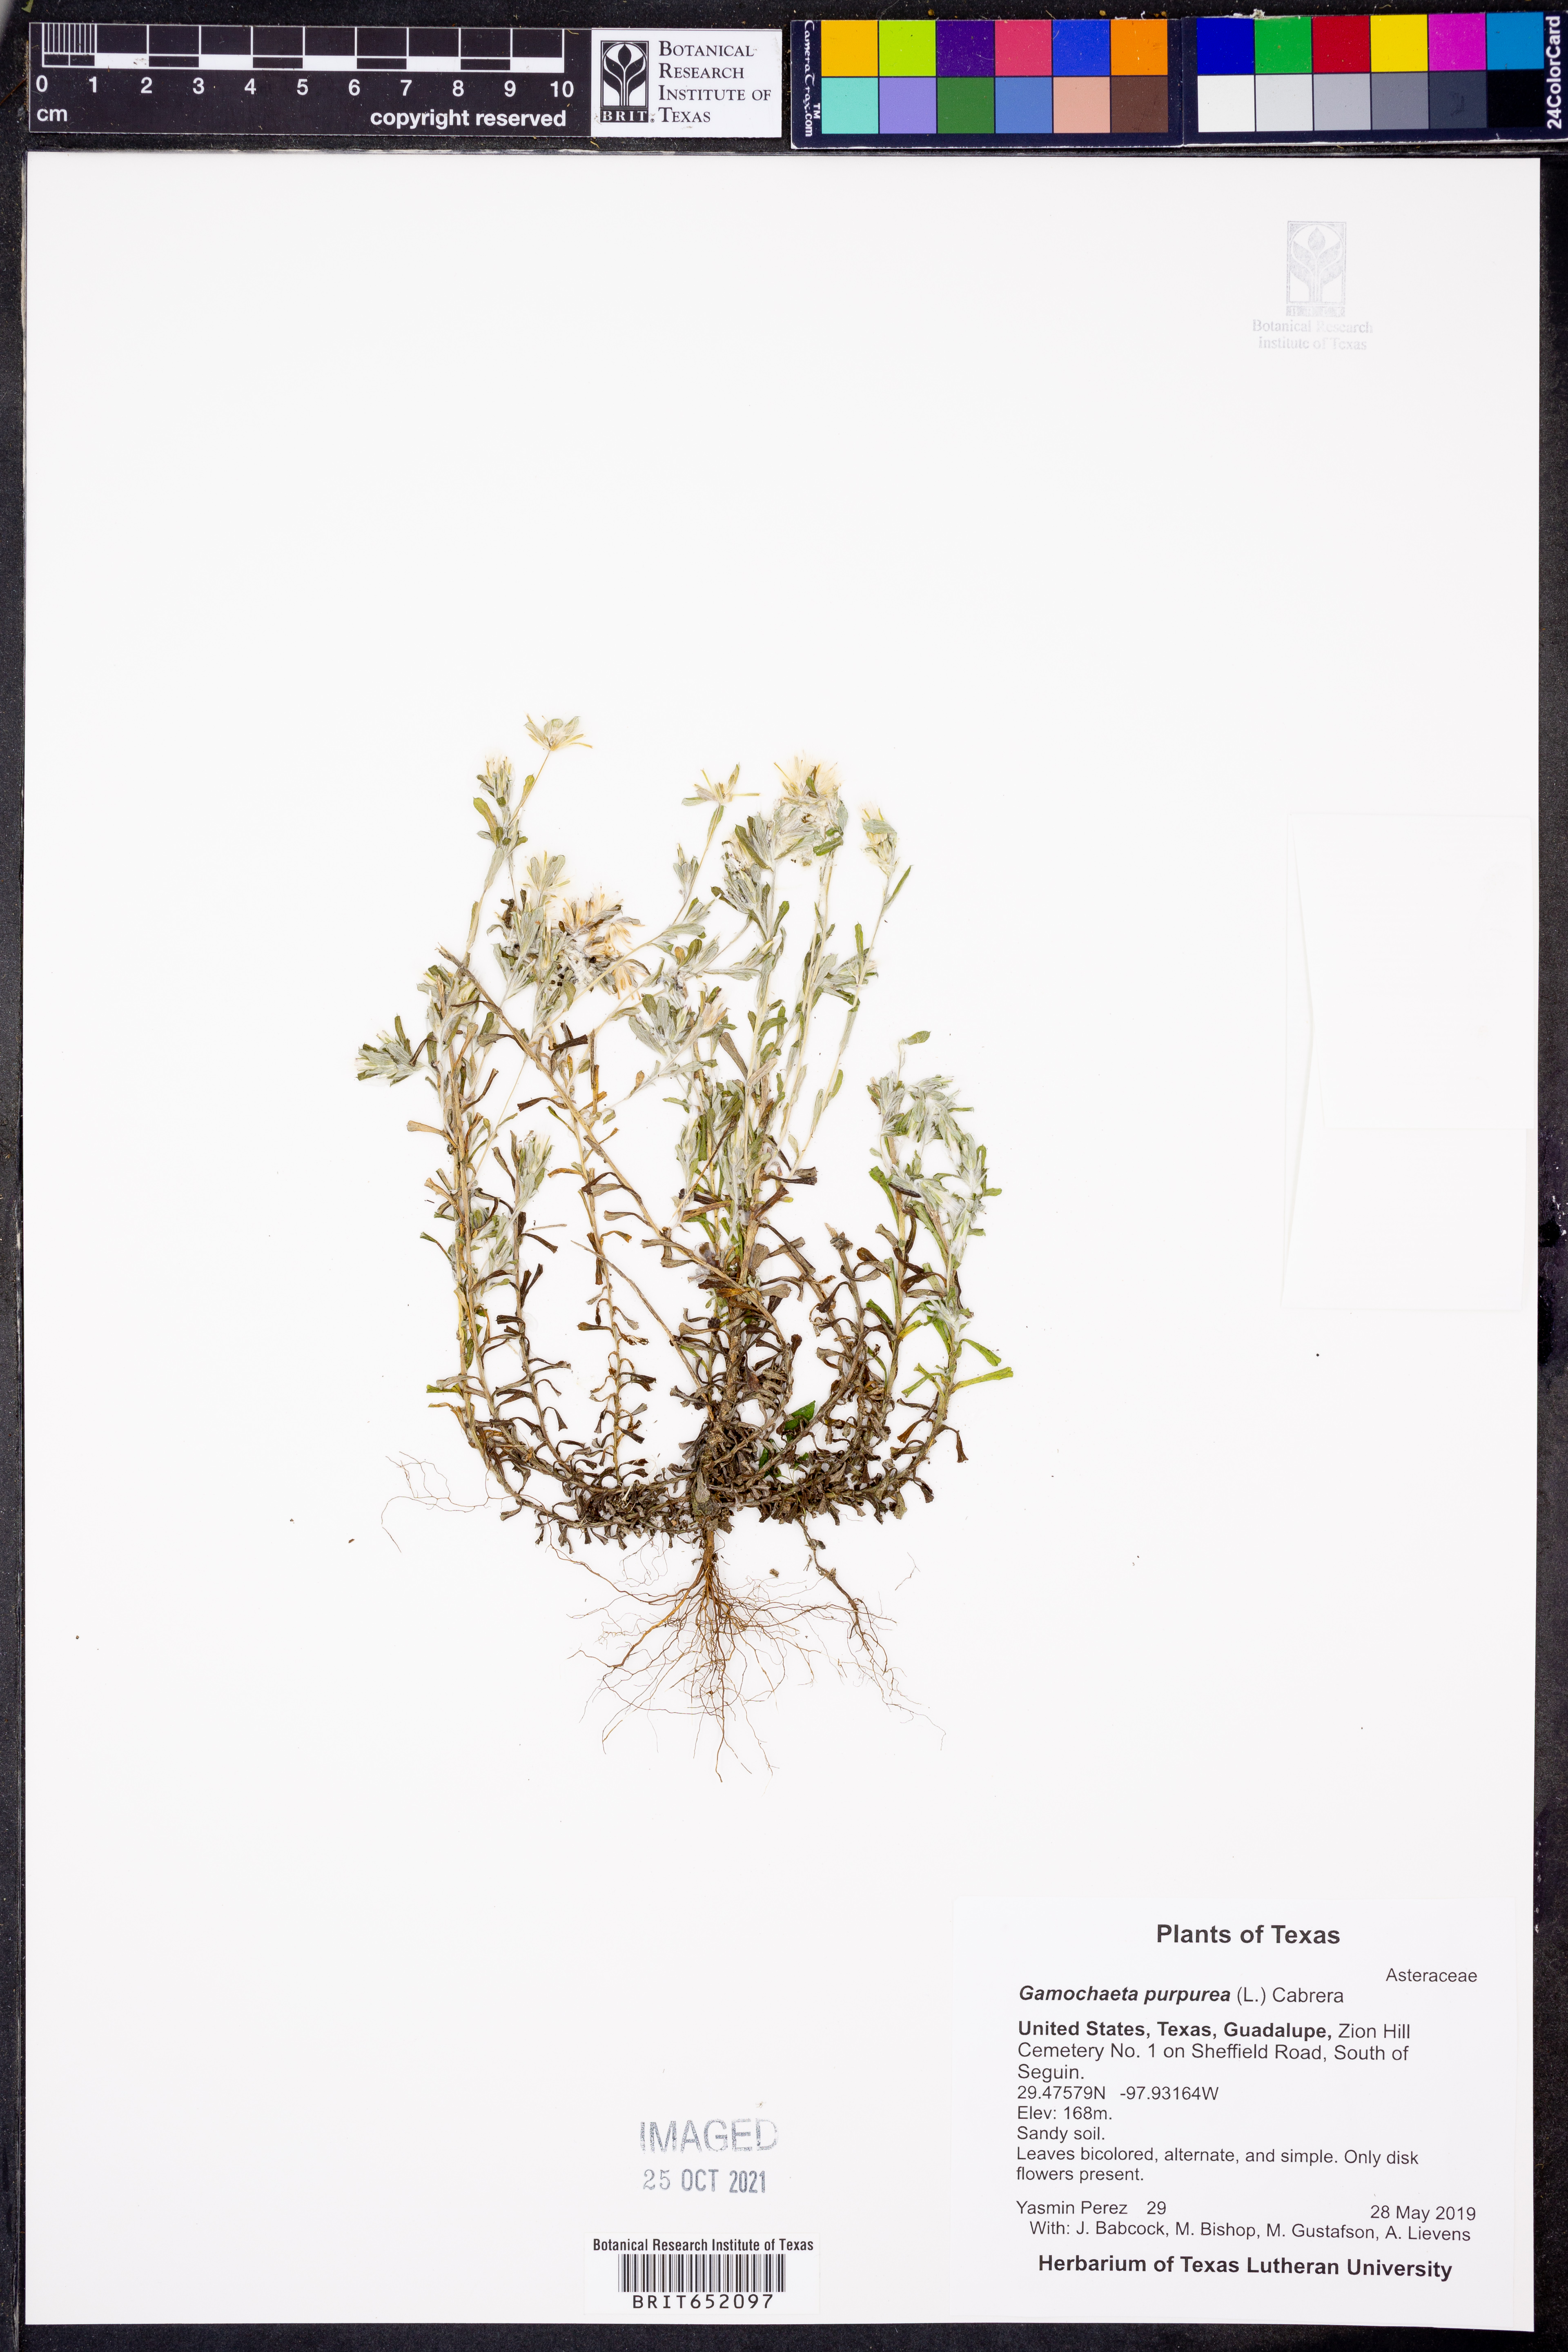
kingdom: Plantae
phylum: Tracheophyta
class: Magnoliopsida
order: Asterales
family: Asteraceae
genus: Gamochaeta
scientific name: Gamochaeta purpurea
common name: Purple cudweed
